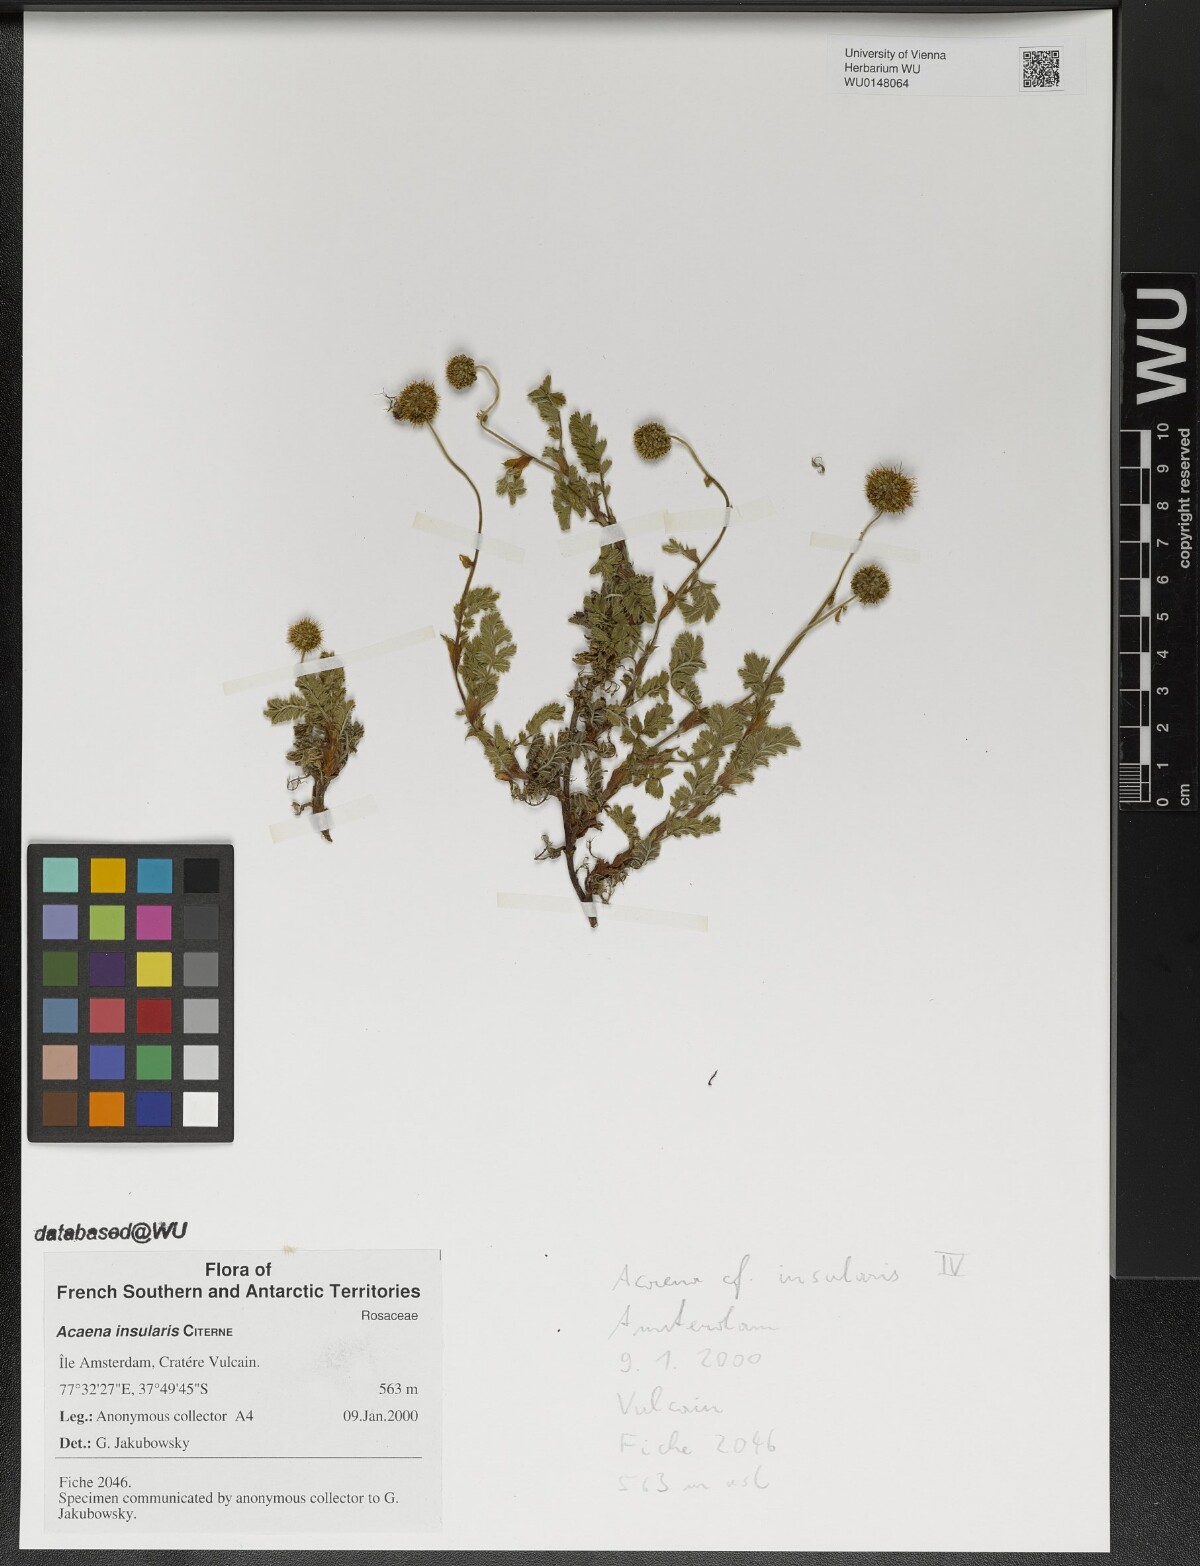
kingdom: Plantae
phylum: Tracheophyta
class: Magnoliopsida
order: Rosales
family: Rosaceae
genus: Acaena
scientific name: Acaena insularis
